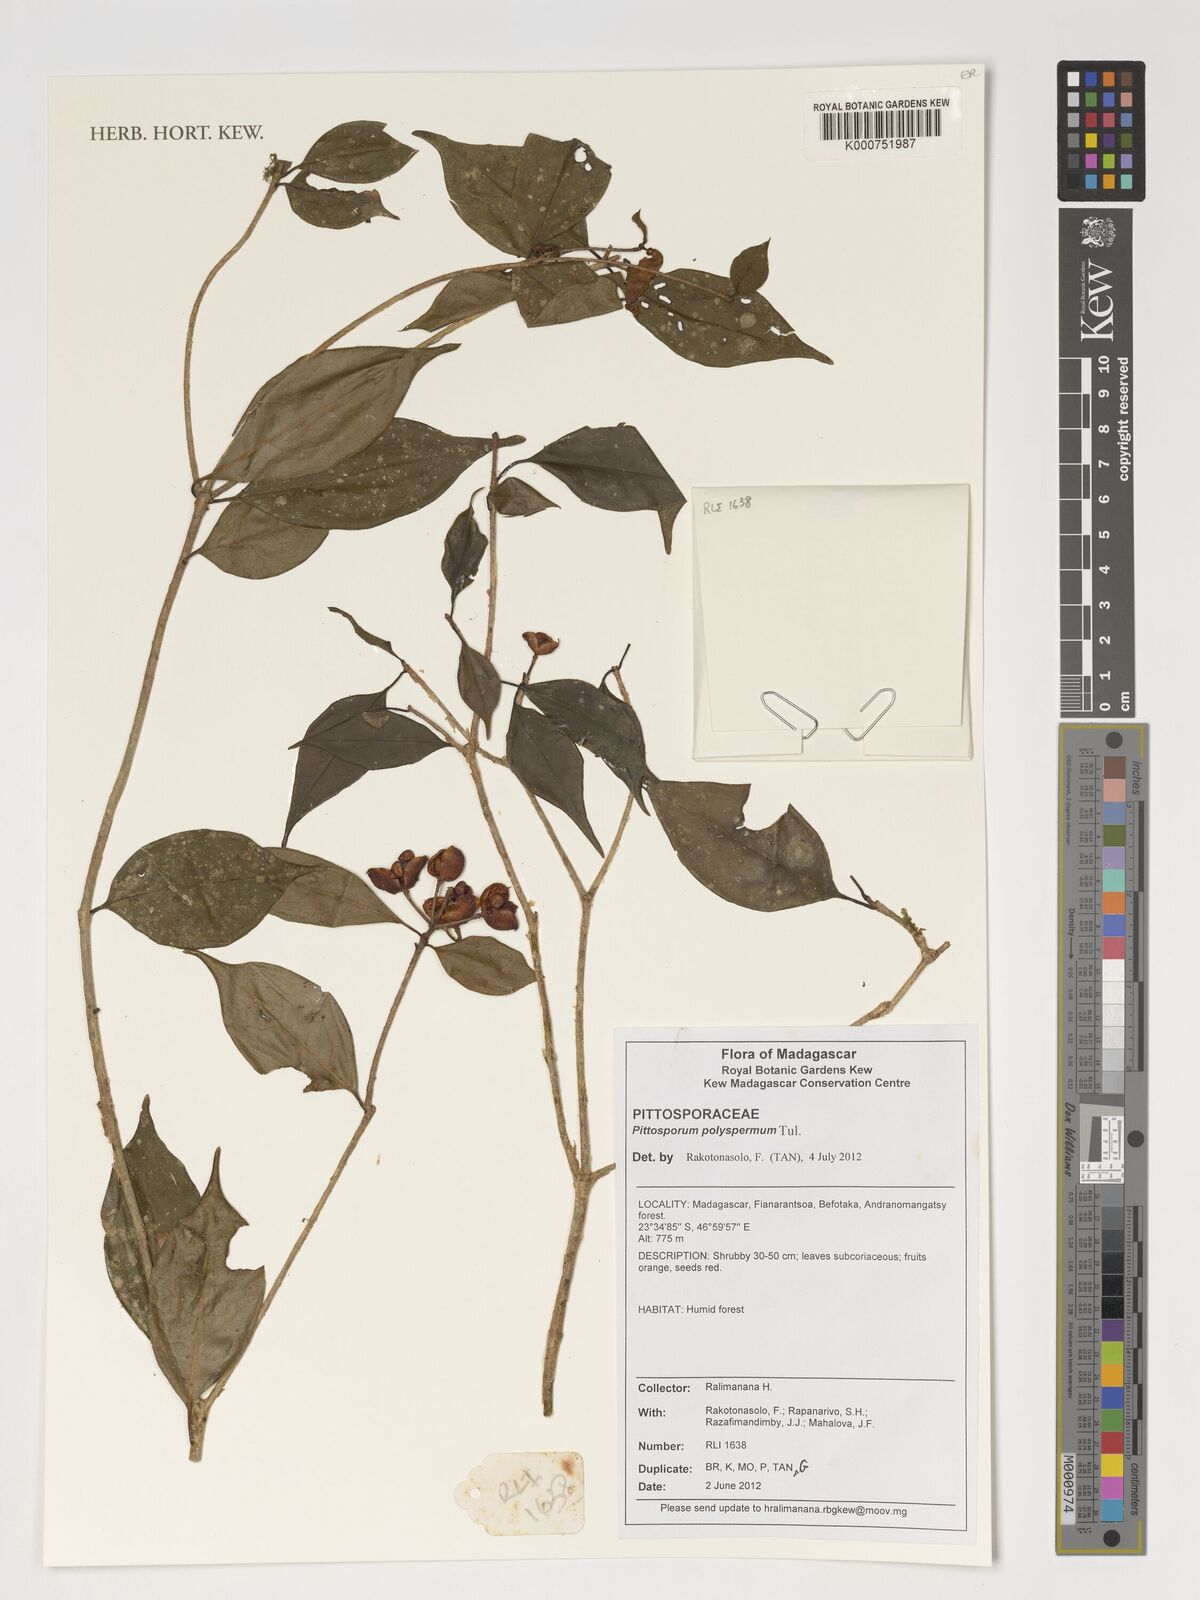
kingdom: Plantae
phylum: Tracheophyta
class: Magnoliopsida
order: Apiales
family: Pittosporaceae
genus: Pittosporum
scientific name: Pittosporum polyspermum
